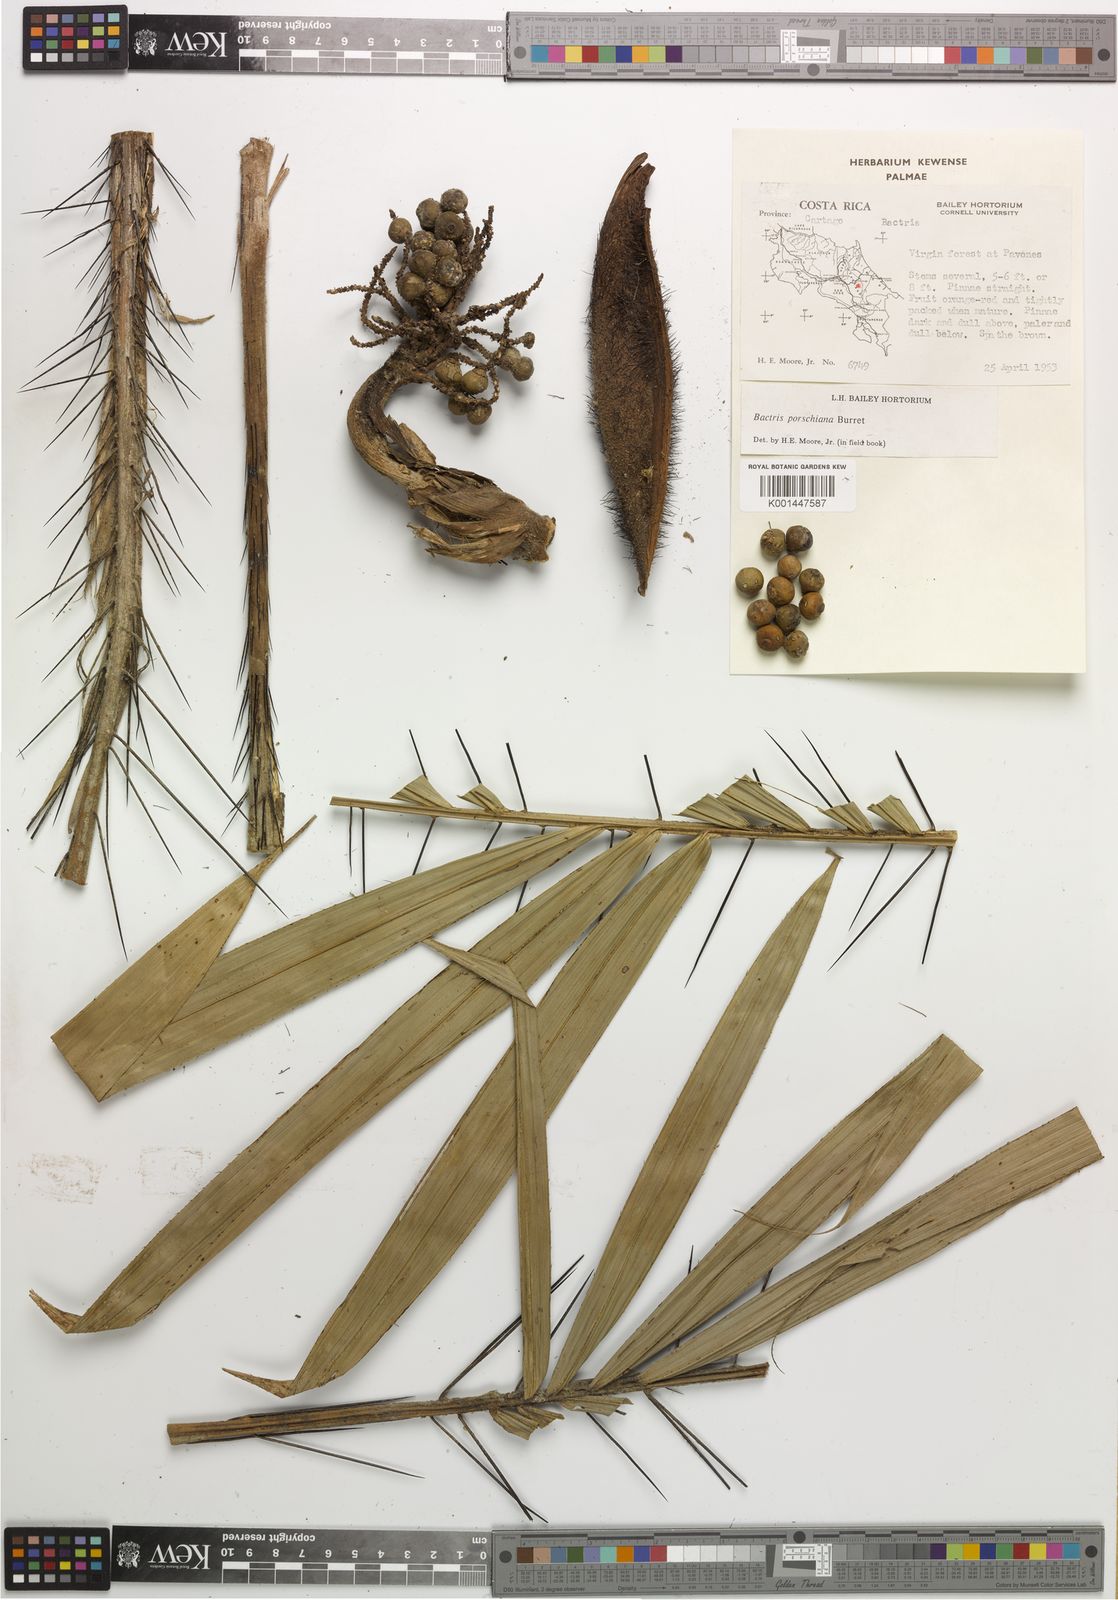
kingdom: Plantae
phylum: Tracheophyta
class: Liliopsida
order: Arecales
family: Arecaceae
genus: Bactris
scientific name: Bactris coloradonis
